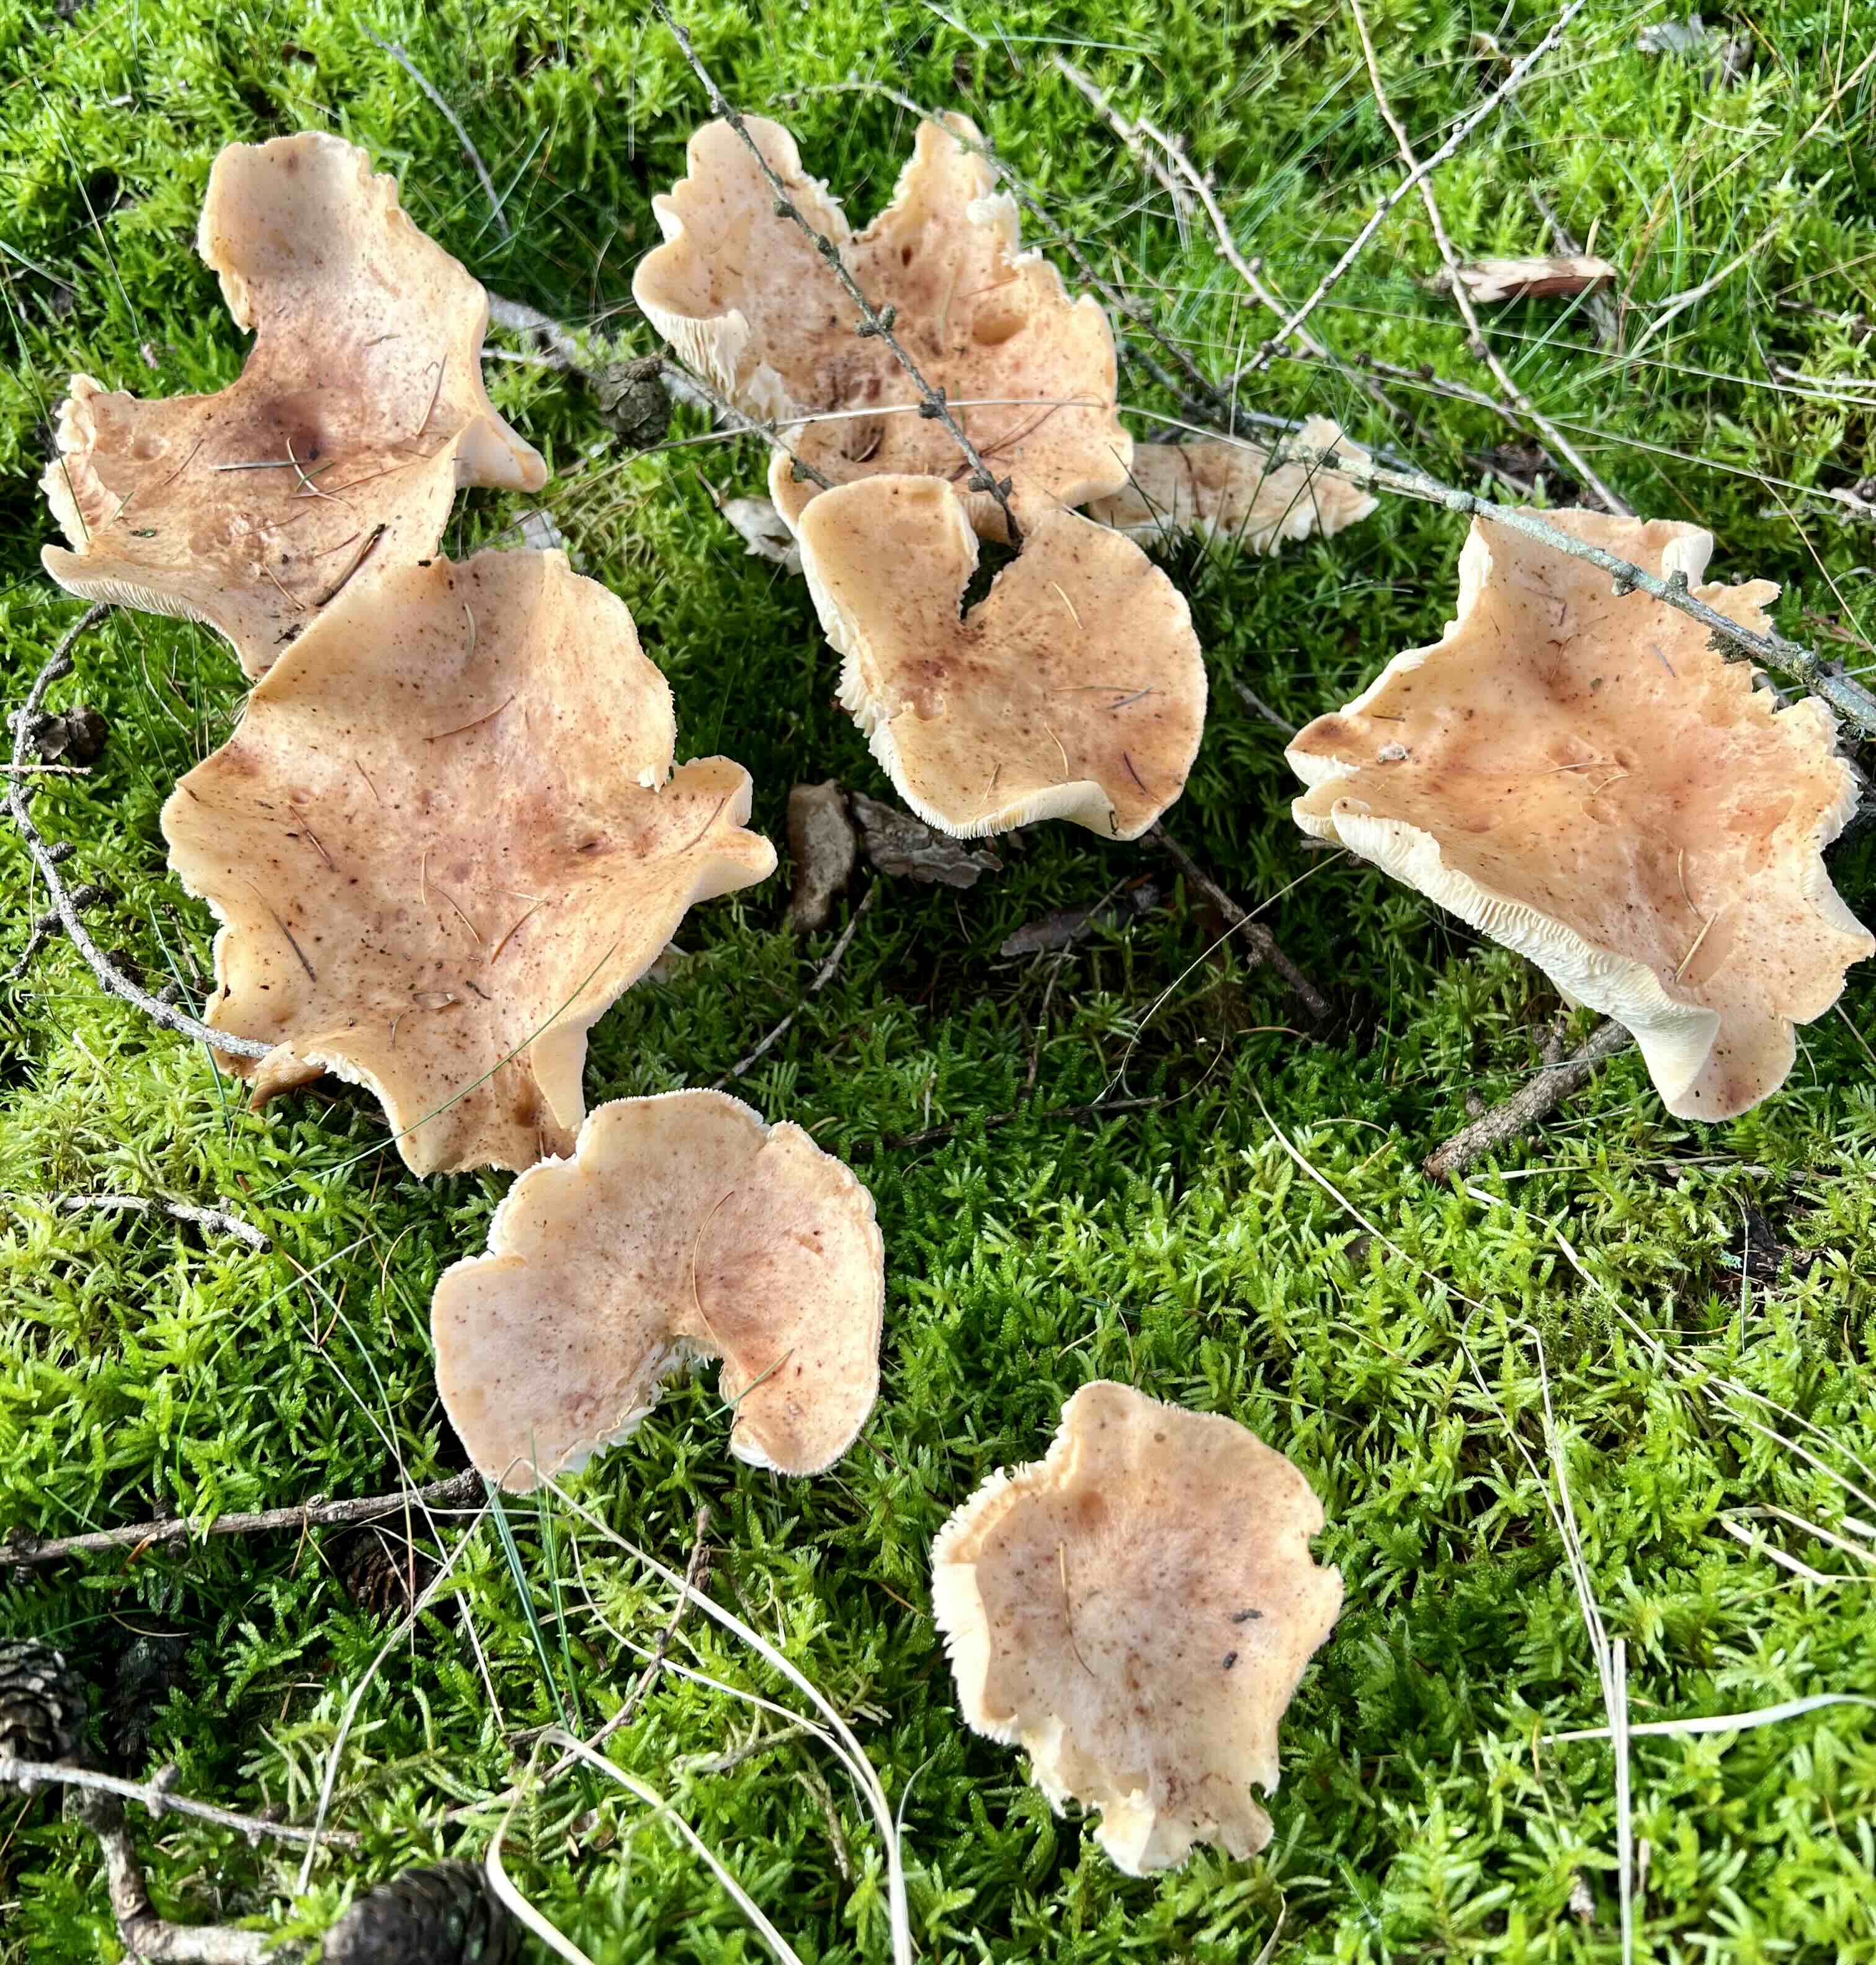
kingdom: Fungi
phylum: Basidiomycota
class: Agaricomycetes
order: Agaricales
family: Omphalotaceae
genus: Rhodocollybia
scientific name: Rhodocollybia maculata
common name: plettet fladhat
